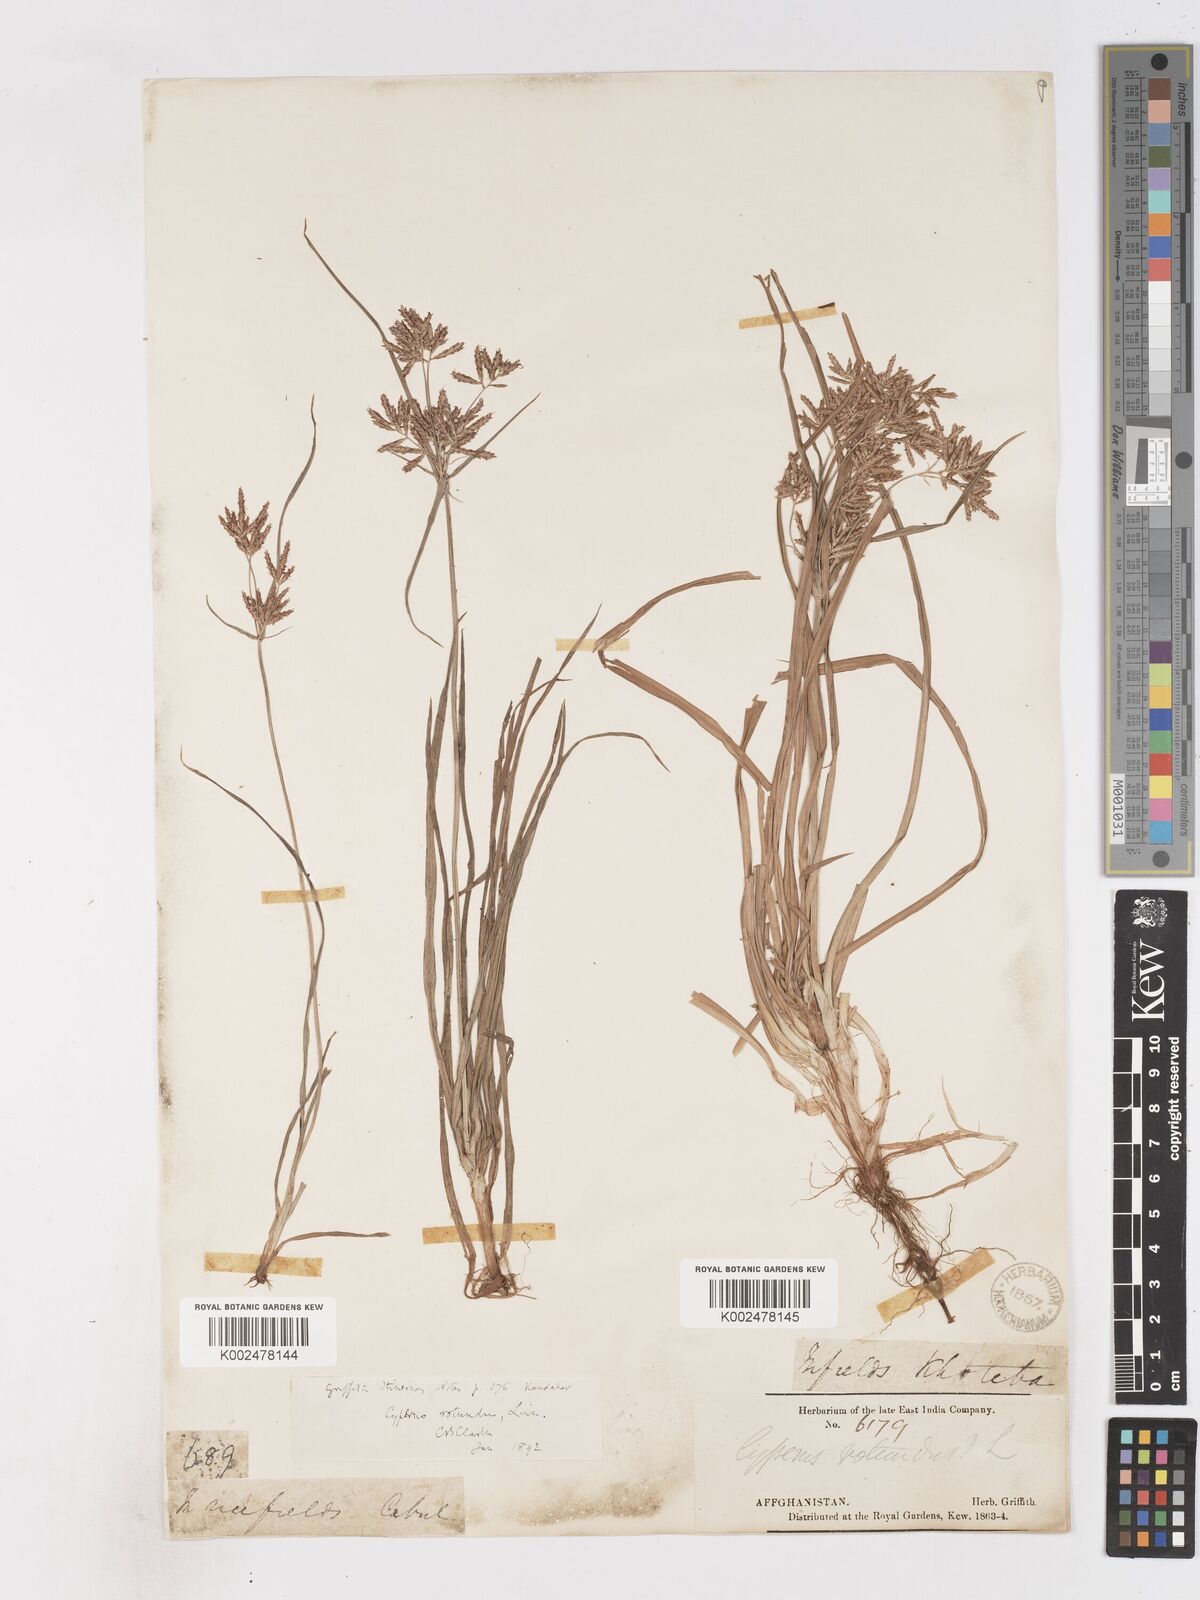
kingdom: Plantae
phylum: Tracheophyta
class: Liliopsida
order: Poales
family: Cyperaceae
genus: Cyperus
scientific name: Cyperus rotundus
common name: Nutgrass
